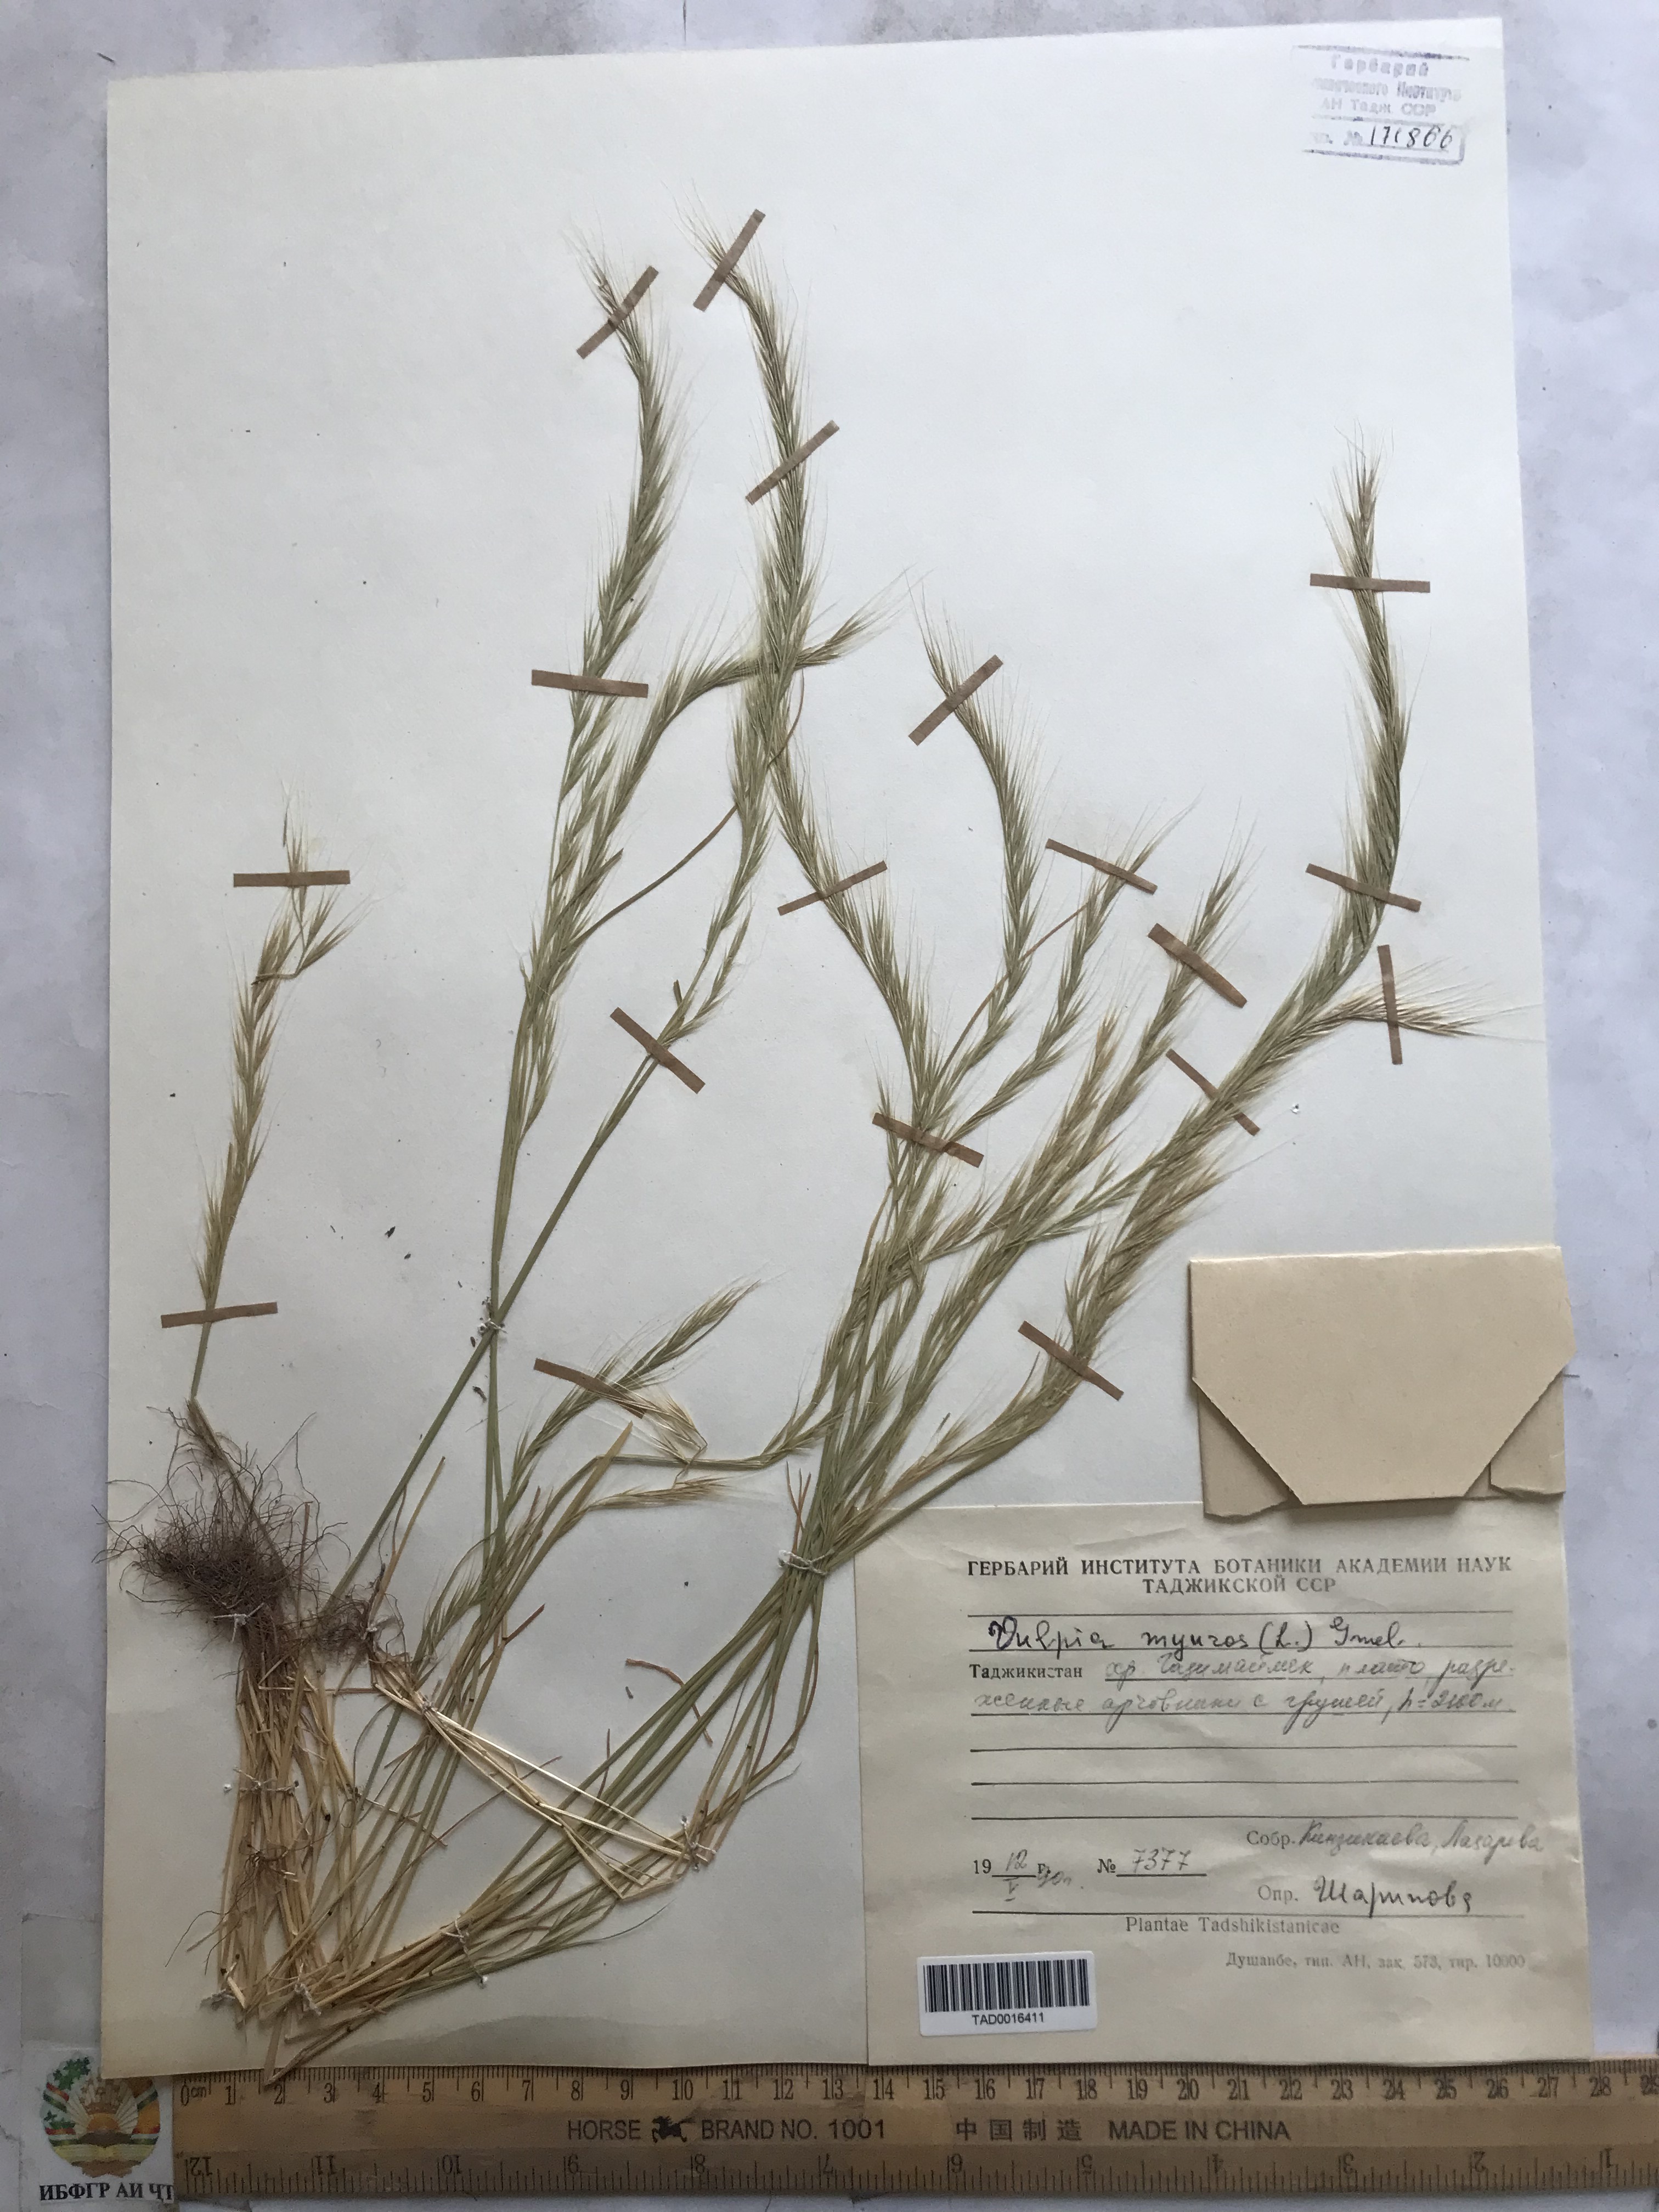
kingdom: Plantae
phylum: Tracheophyta
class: Liliopsida
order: Poales
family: Poaceae
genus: Festuca
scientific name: Festuca myuros
